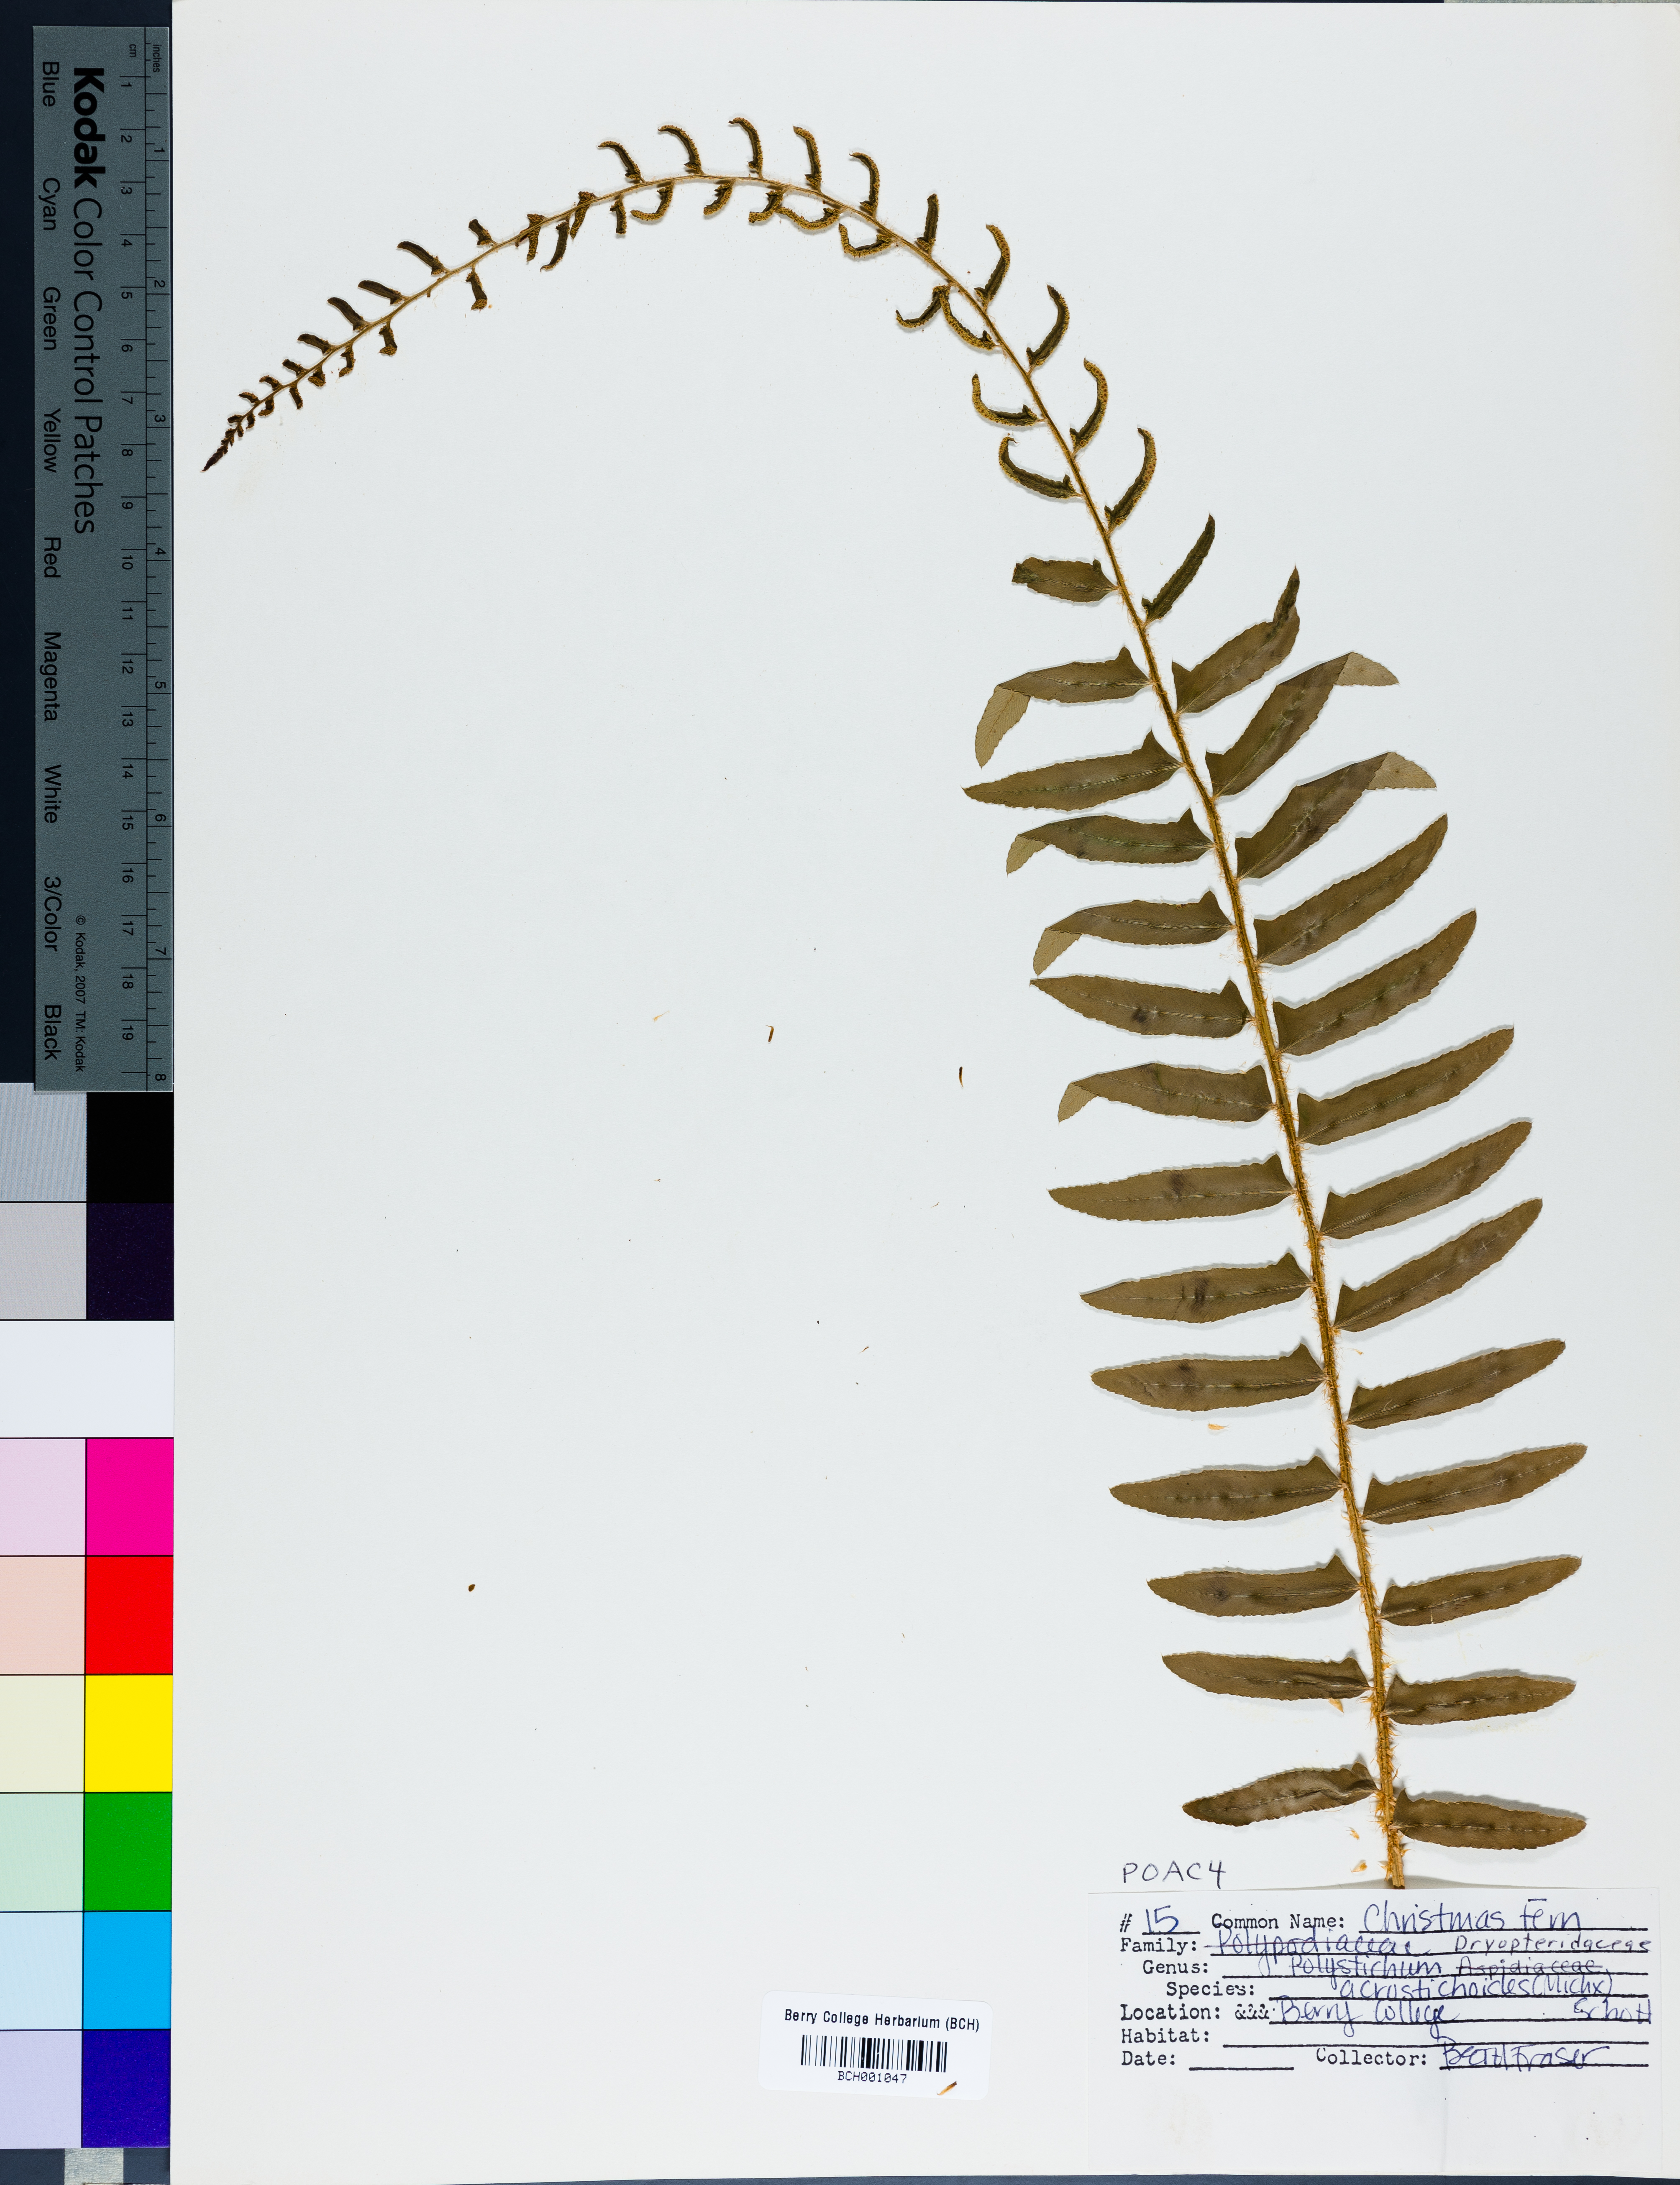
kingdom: Plantae
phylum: Tracheophyta
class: Polypodiopsida
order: Polypodiales
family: Dryopteridaceae
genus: Polystichum
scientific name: Polystichum acrostichoides
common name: Christmas fern
